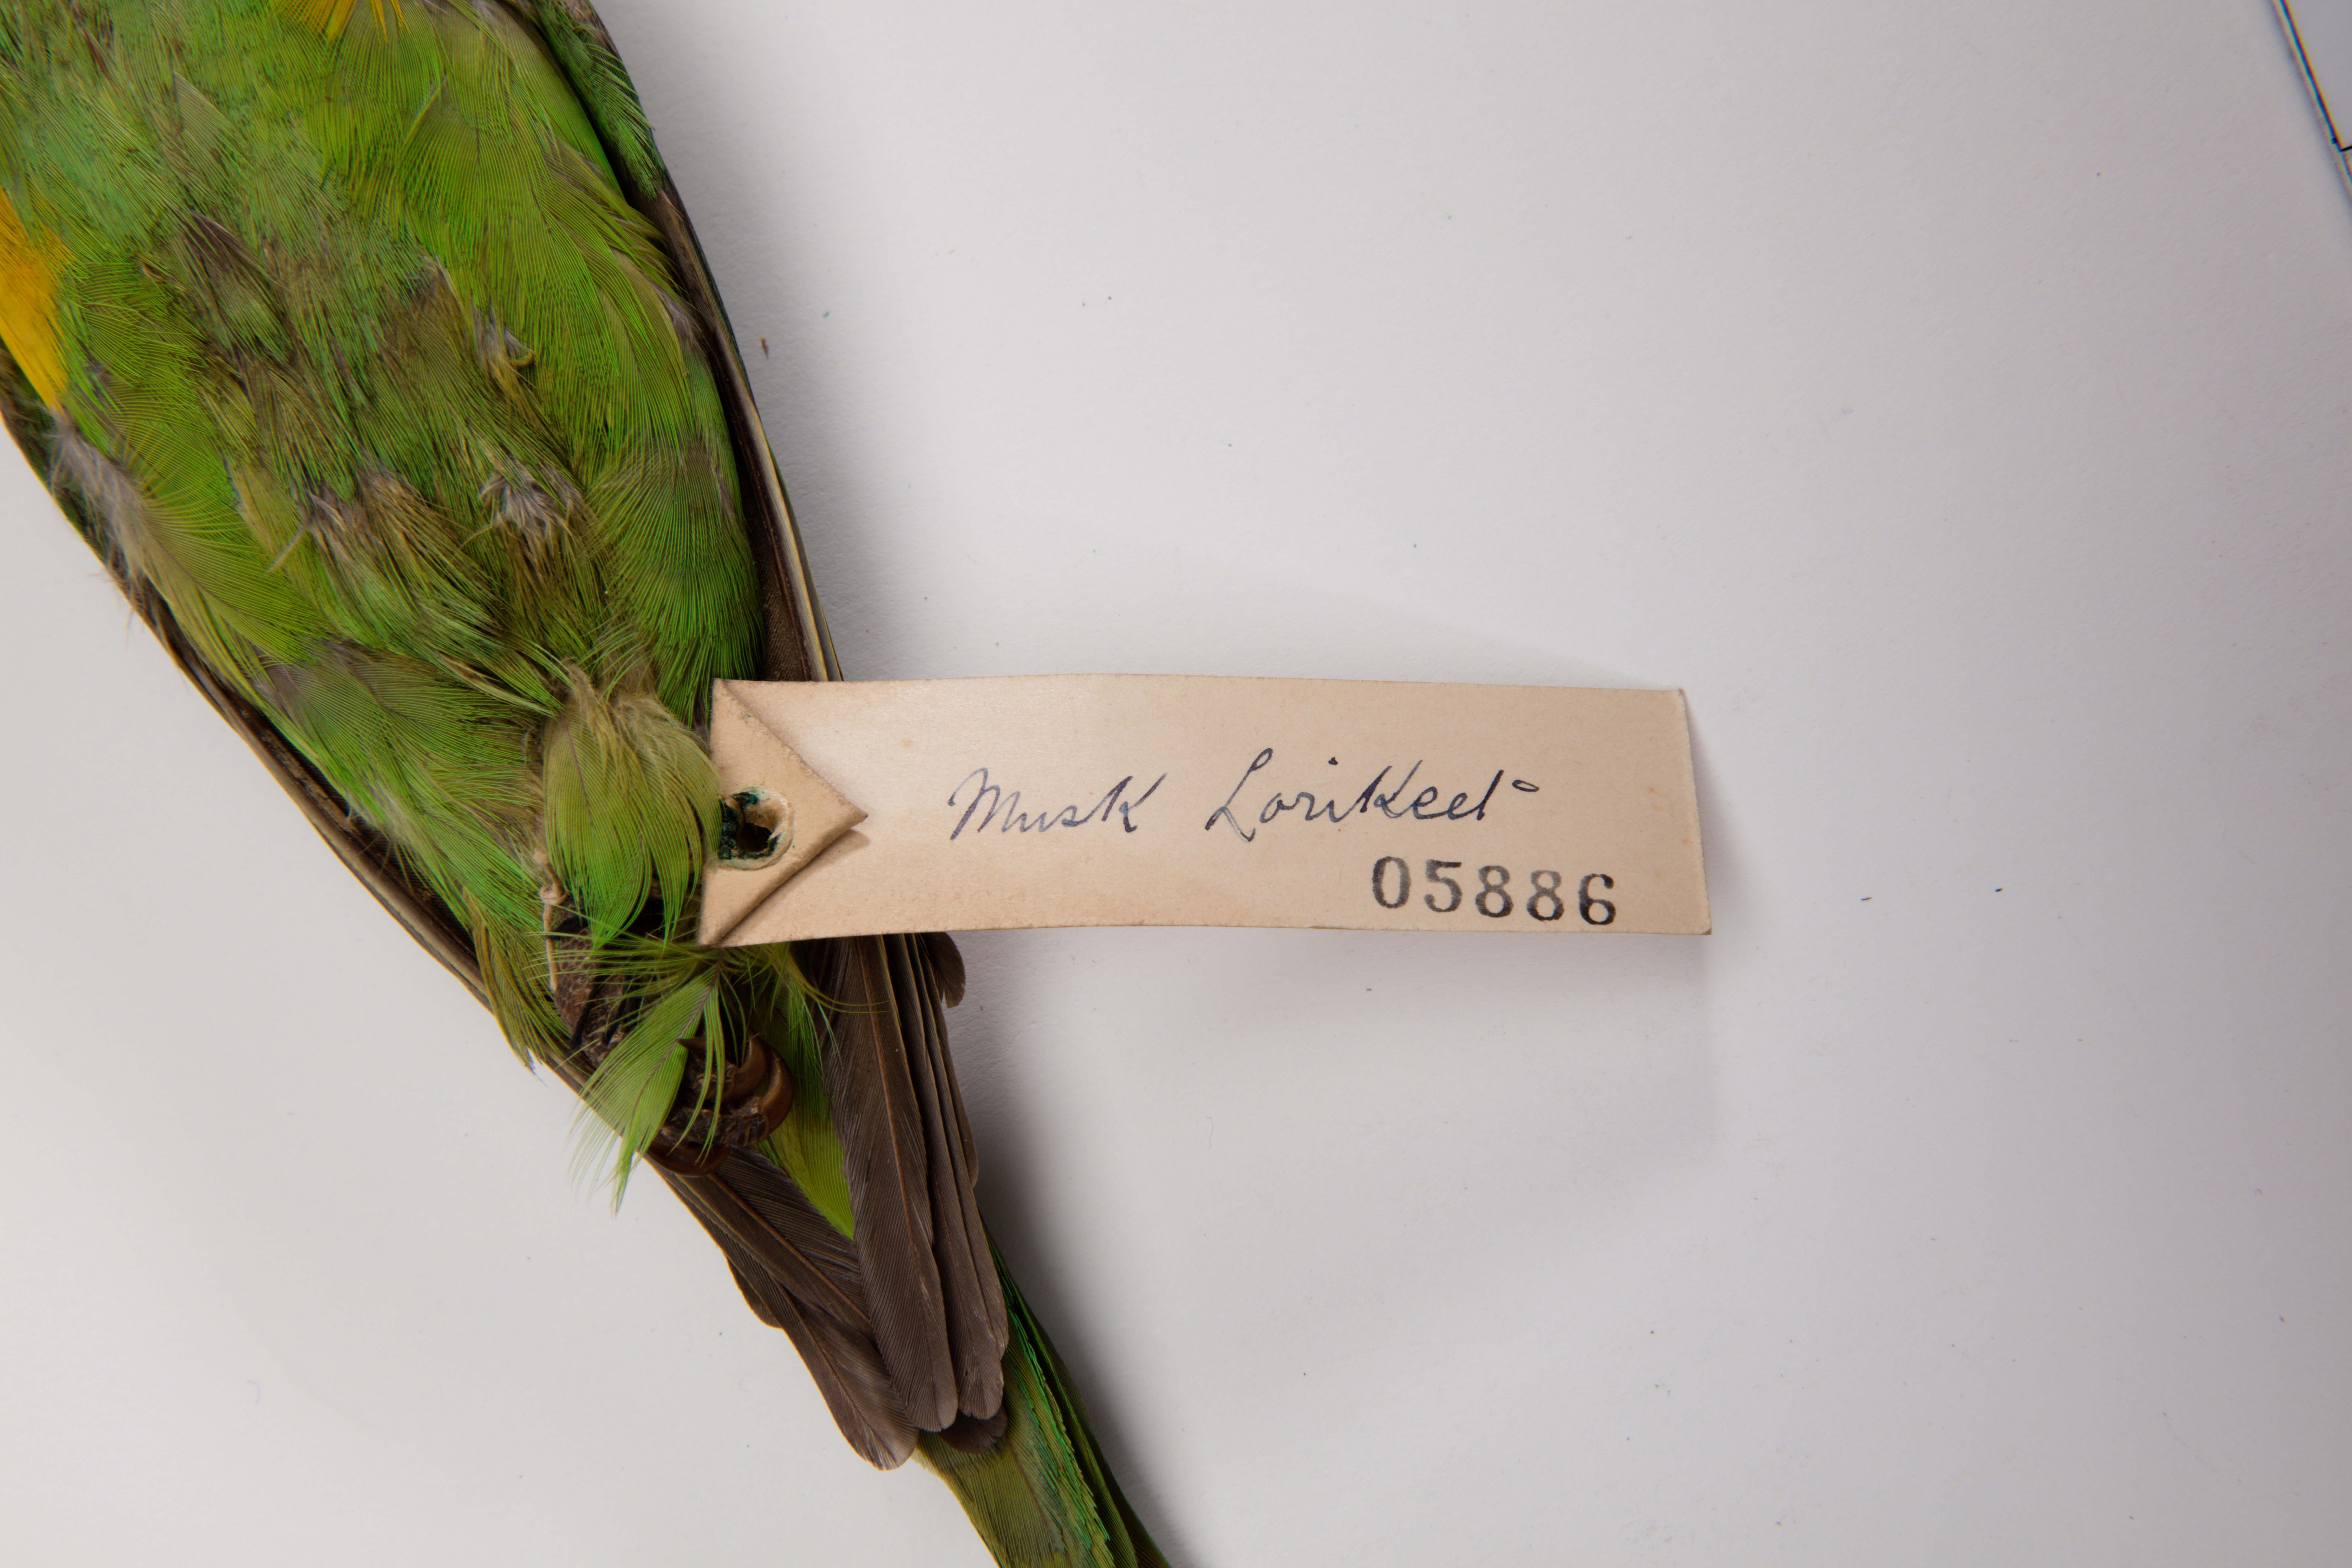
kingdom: Animalia
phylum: Chordata
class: Aves
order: Psittaciformes
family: Psittacidae
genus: Glossopsitta
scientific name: Glossopsitta concinna
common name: Musk lorikeet
